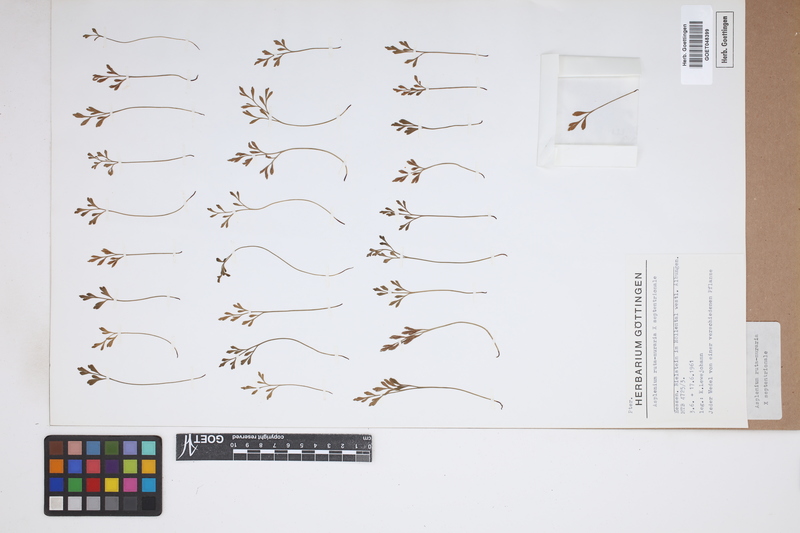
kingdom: Plantae
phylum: Tracheophyta
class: Polypodiopsida
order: Polypodiales
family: Aspleniaceae
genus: Asplenium
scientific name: Asplenium
